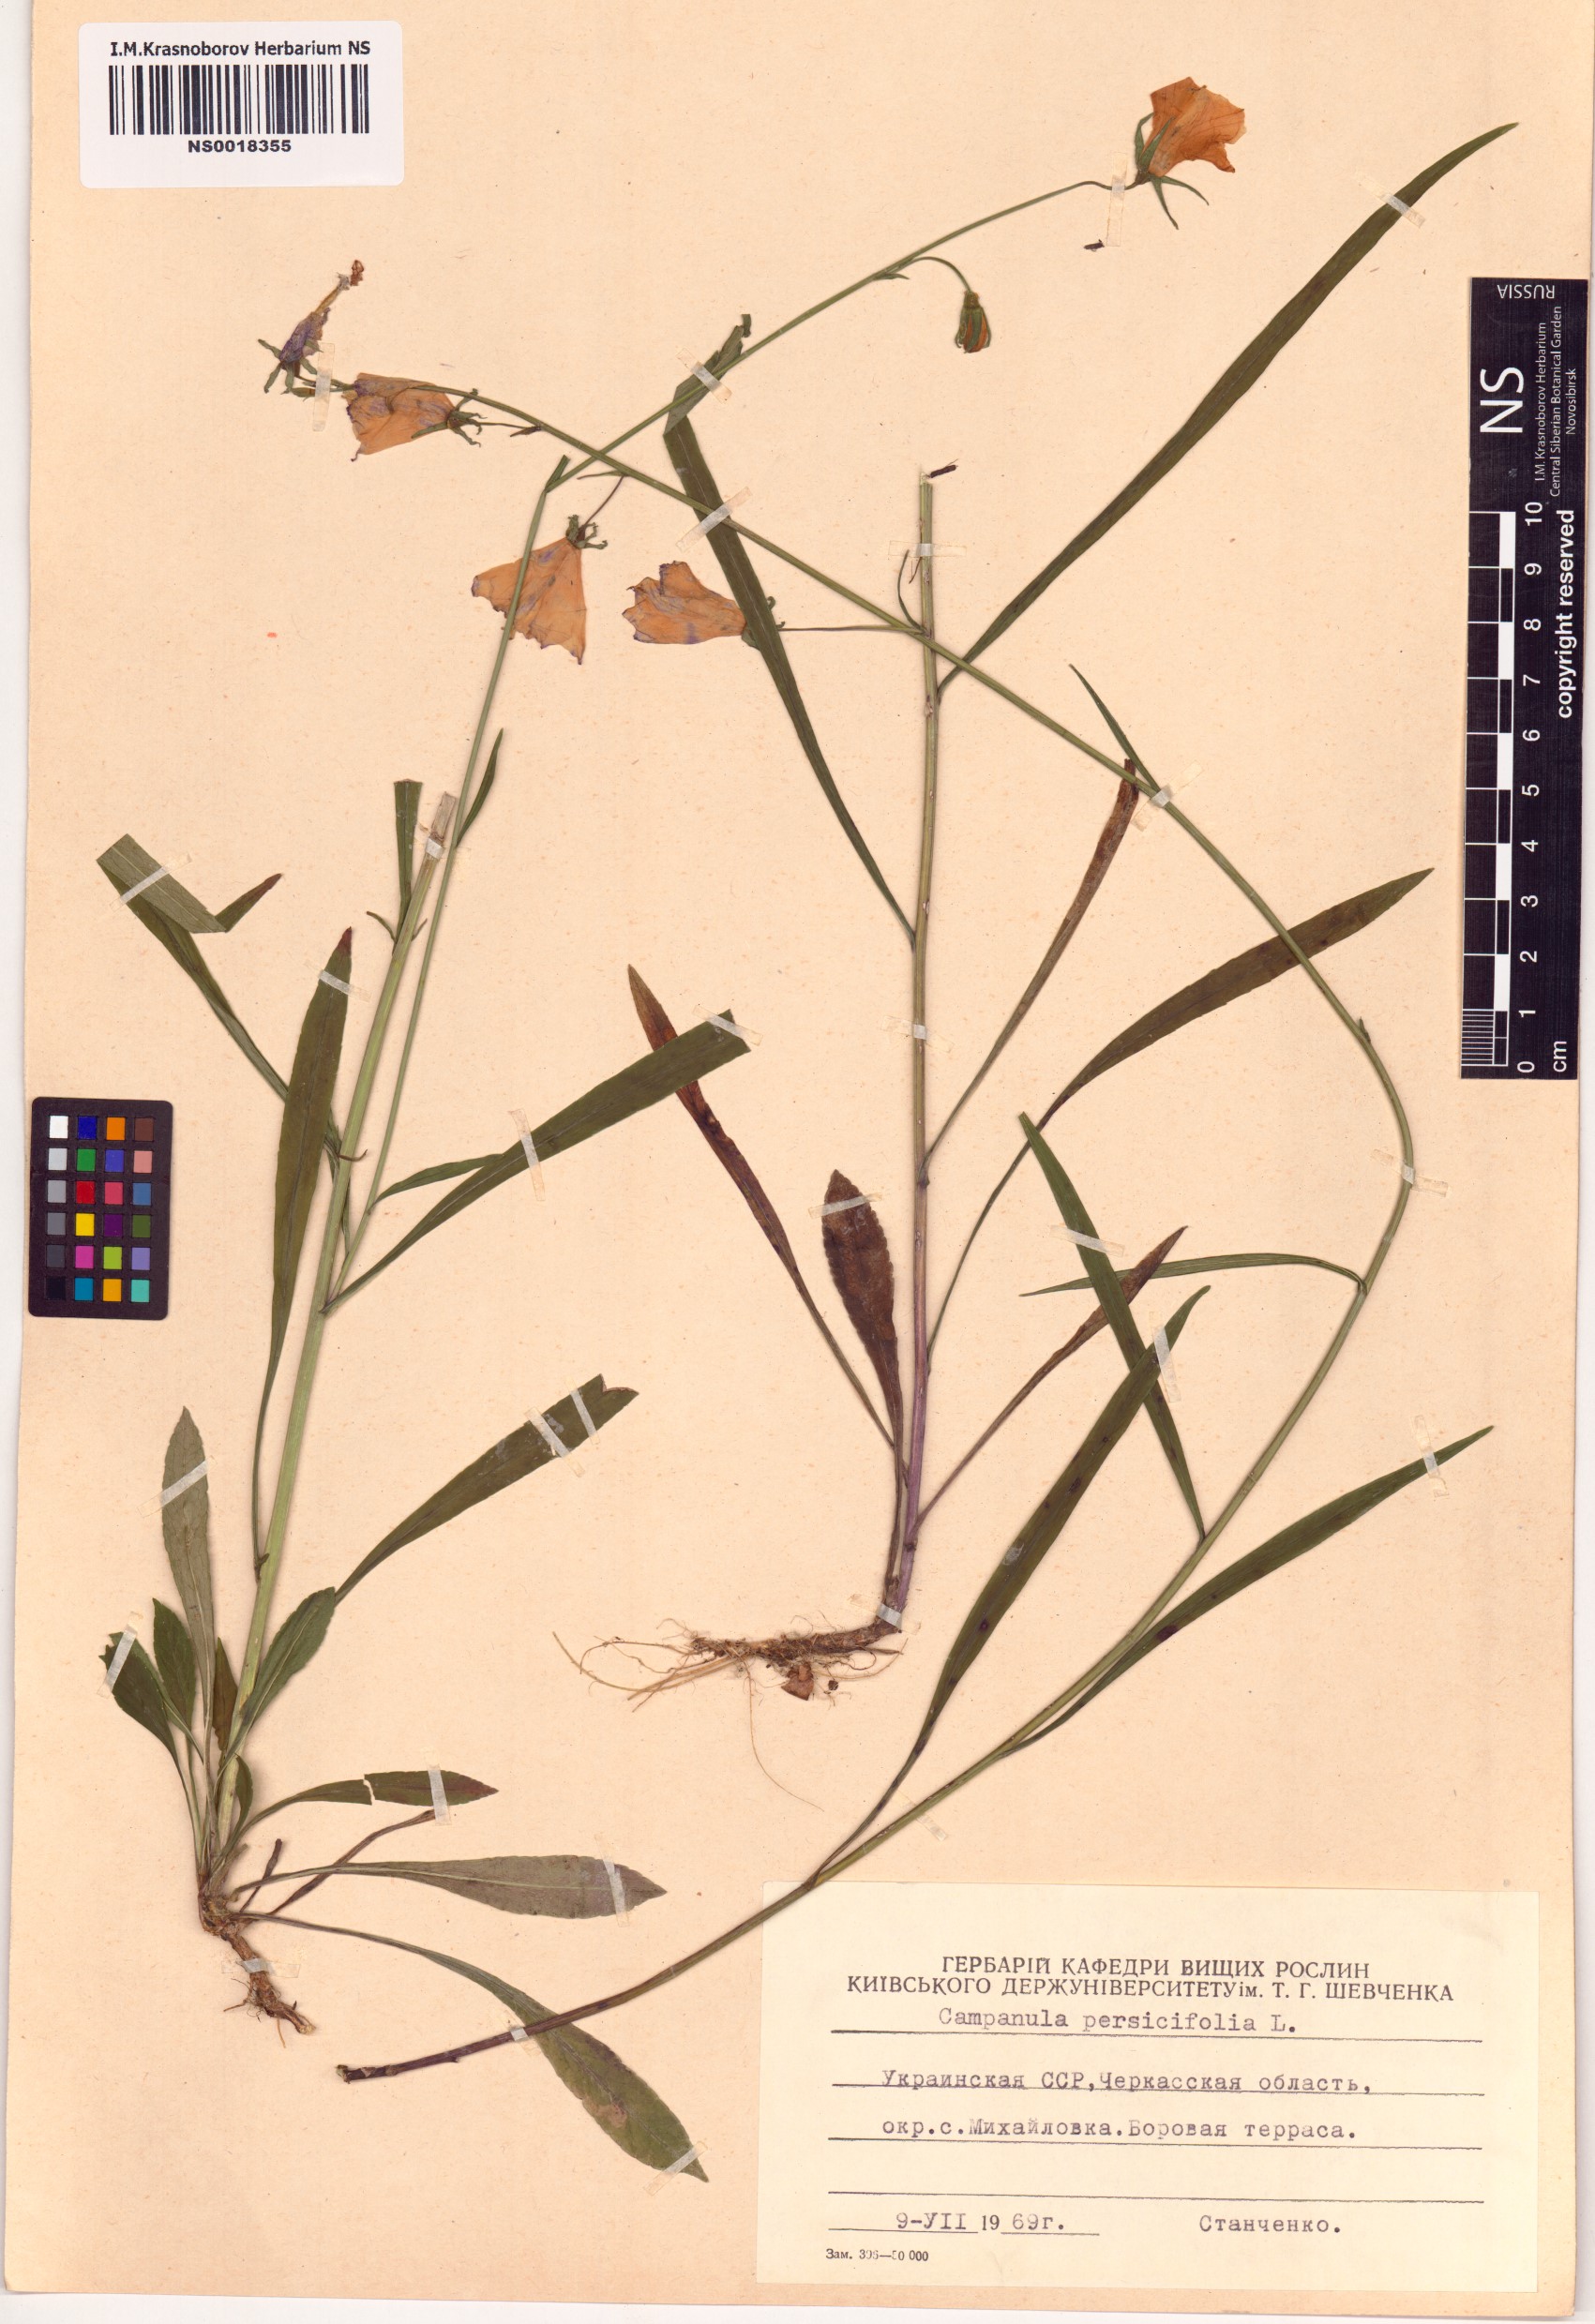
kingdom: Plantae
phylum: Tracheophyta
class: Magnoliopsida
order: Asterales
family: Campanulaceae
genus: Campanula
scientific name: Campanula persicifolia
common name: Peach-leaved bellflower
